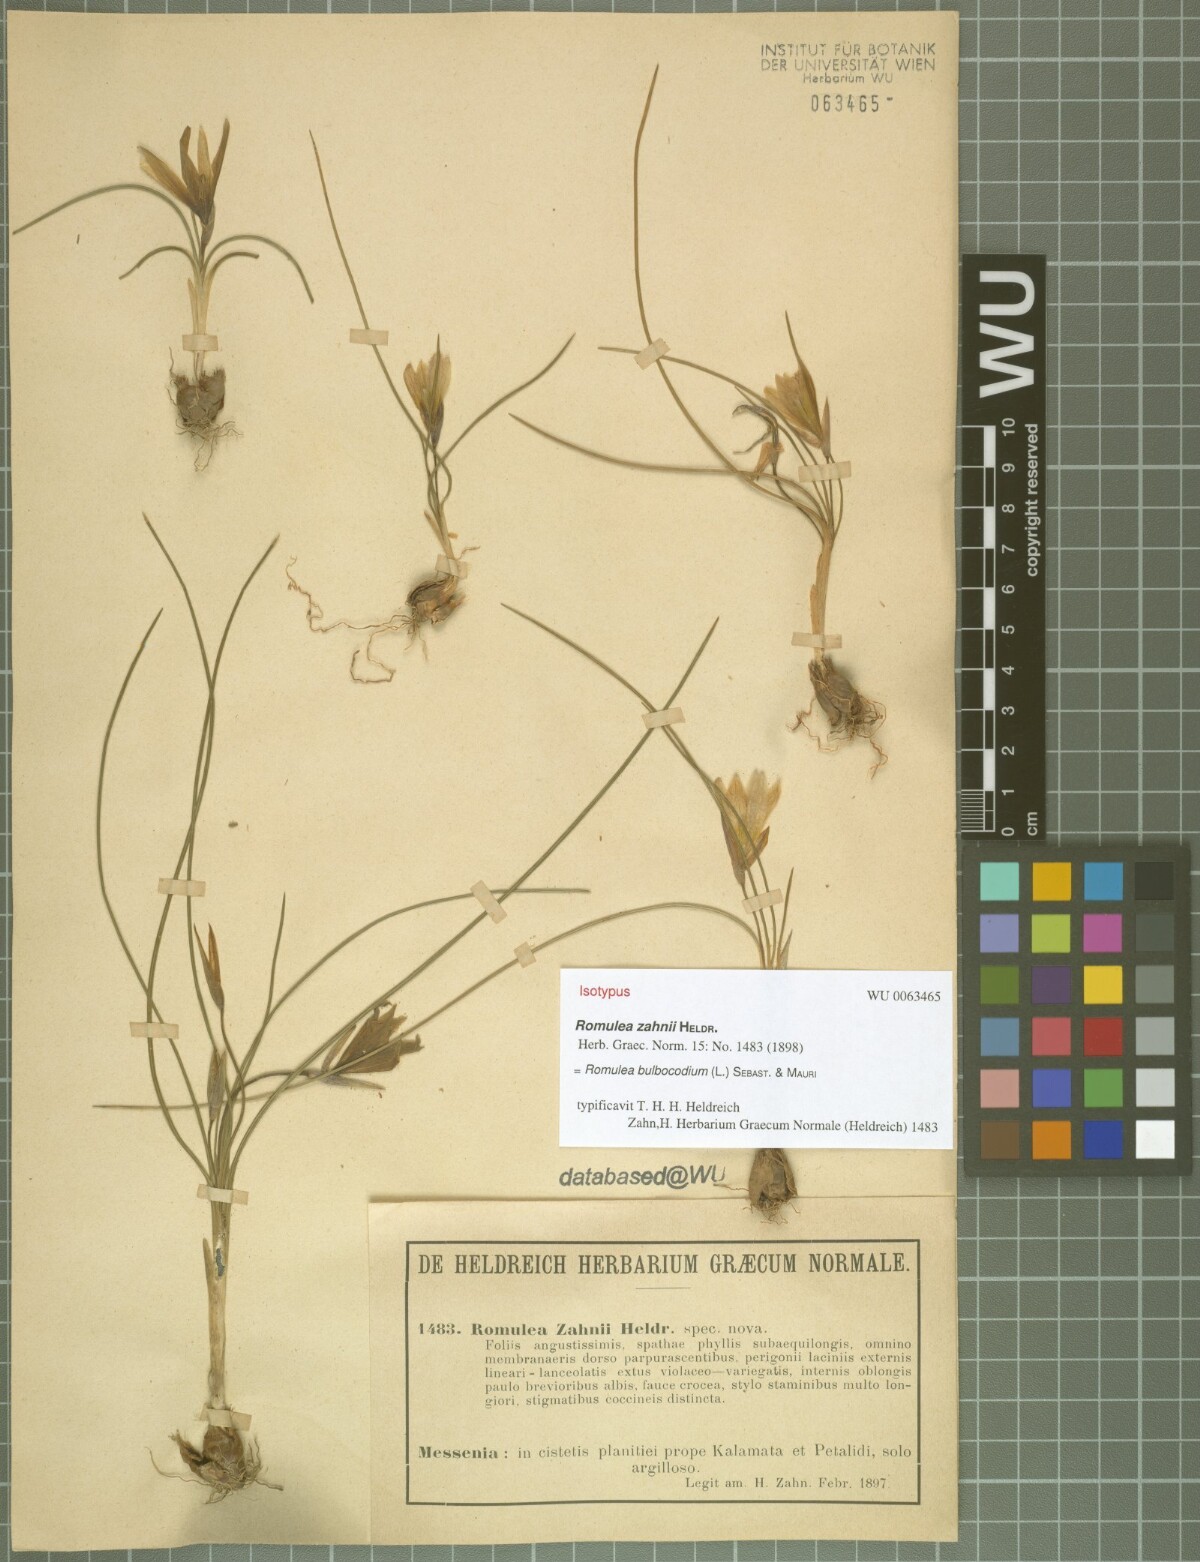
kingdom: Plantae
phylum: Tracheophyta
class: Liliopsida
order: Asparagales
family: Iridaceae
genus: Romulea
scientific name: Romulea bulbocodium
